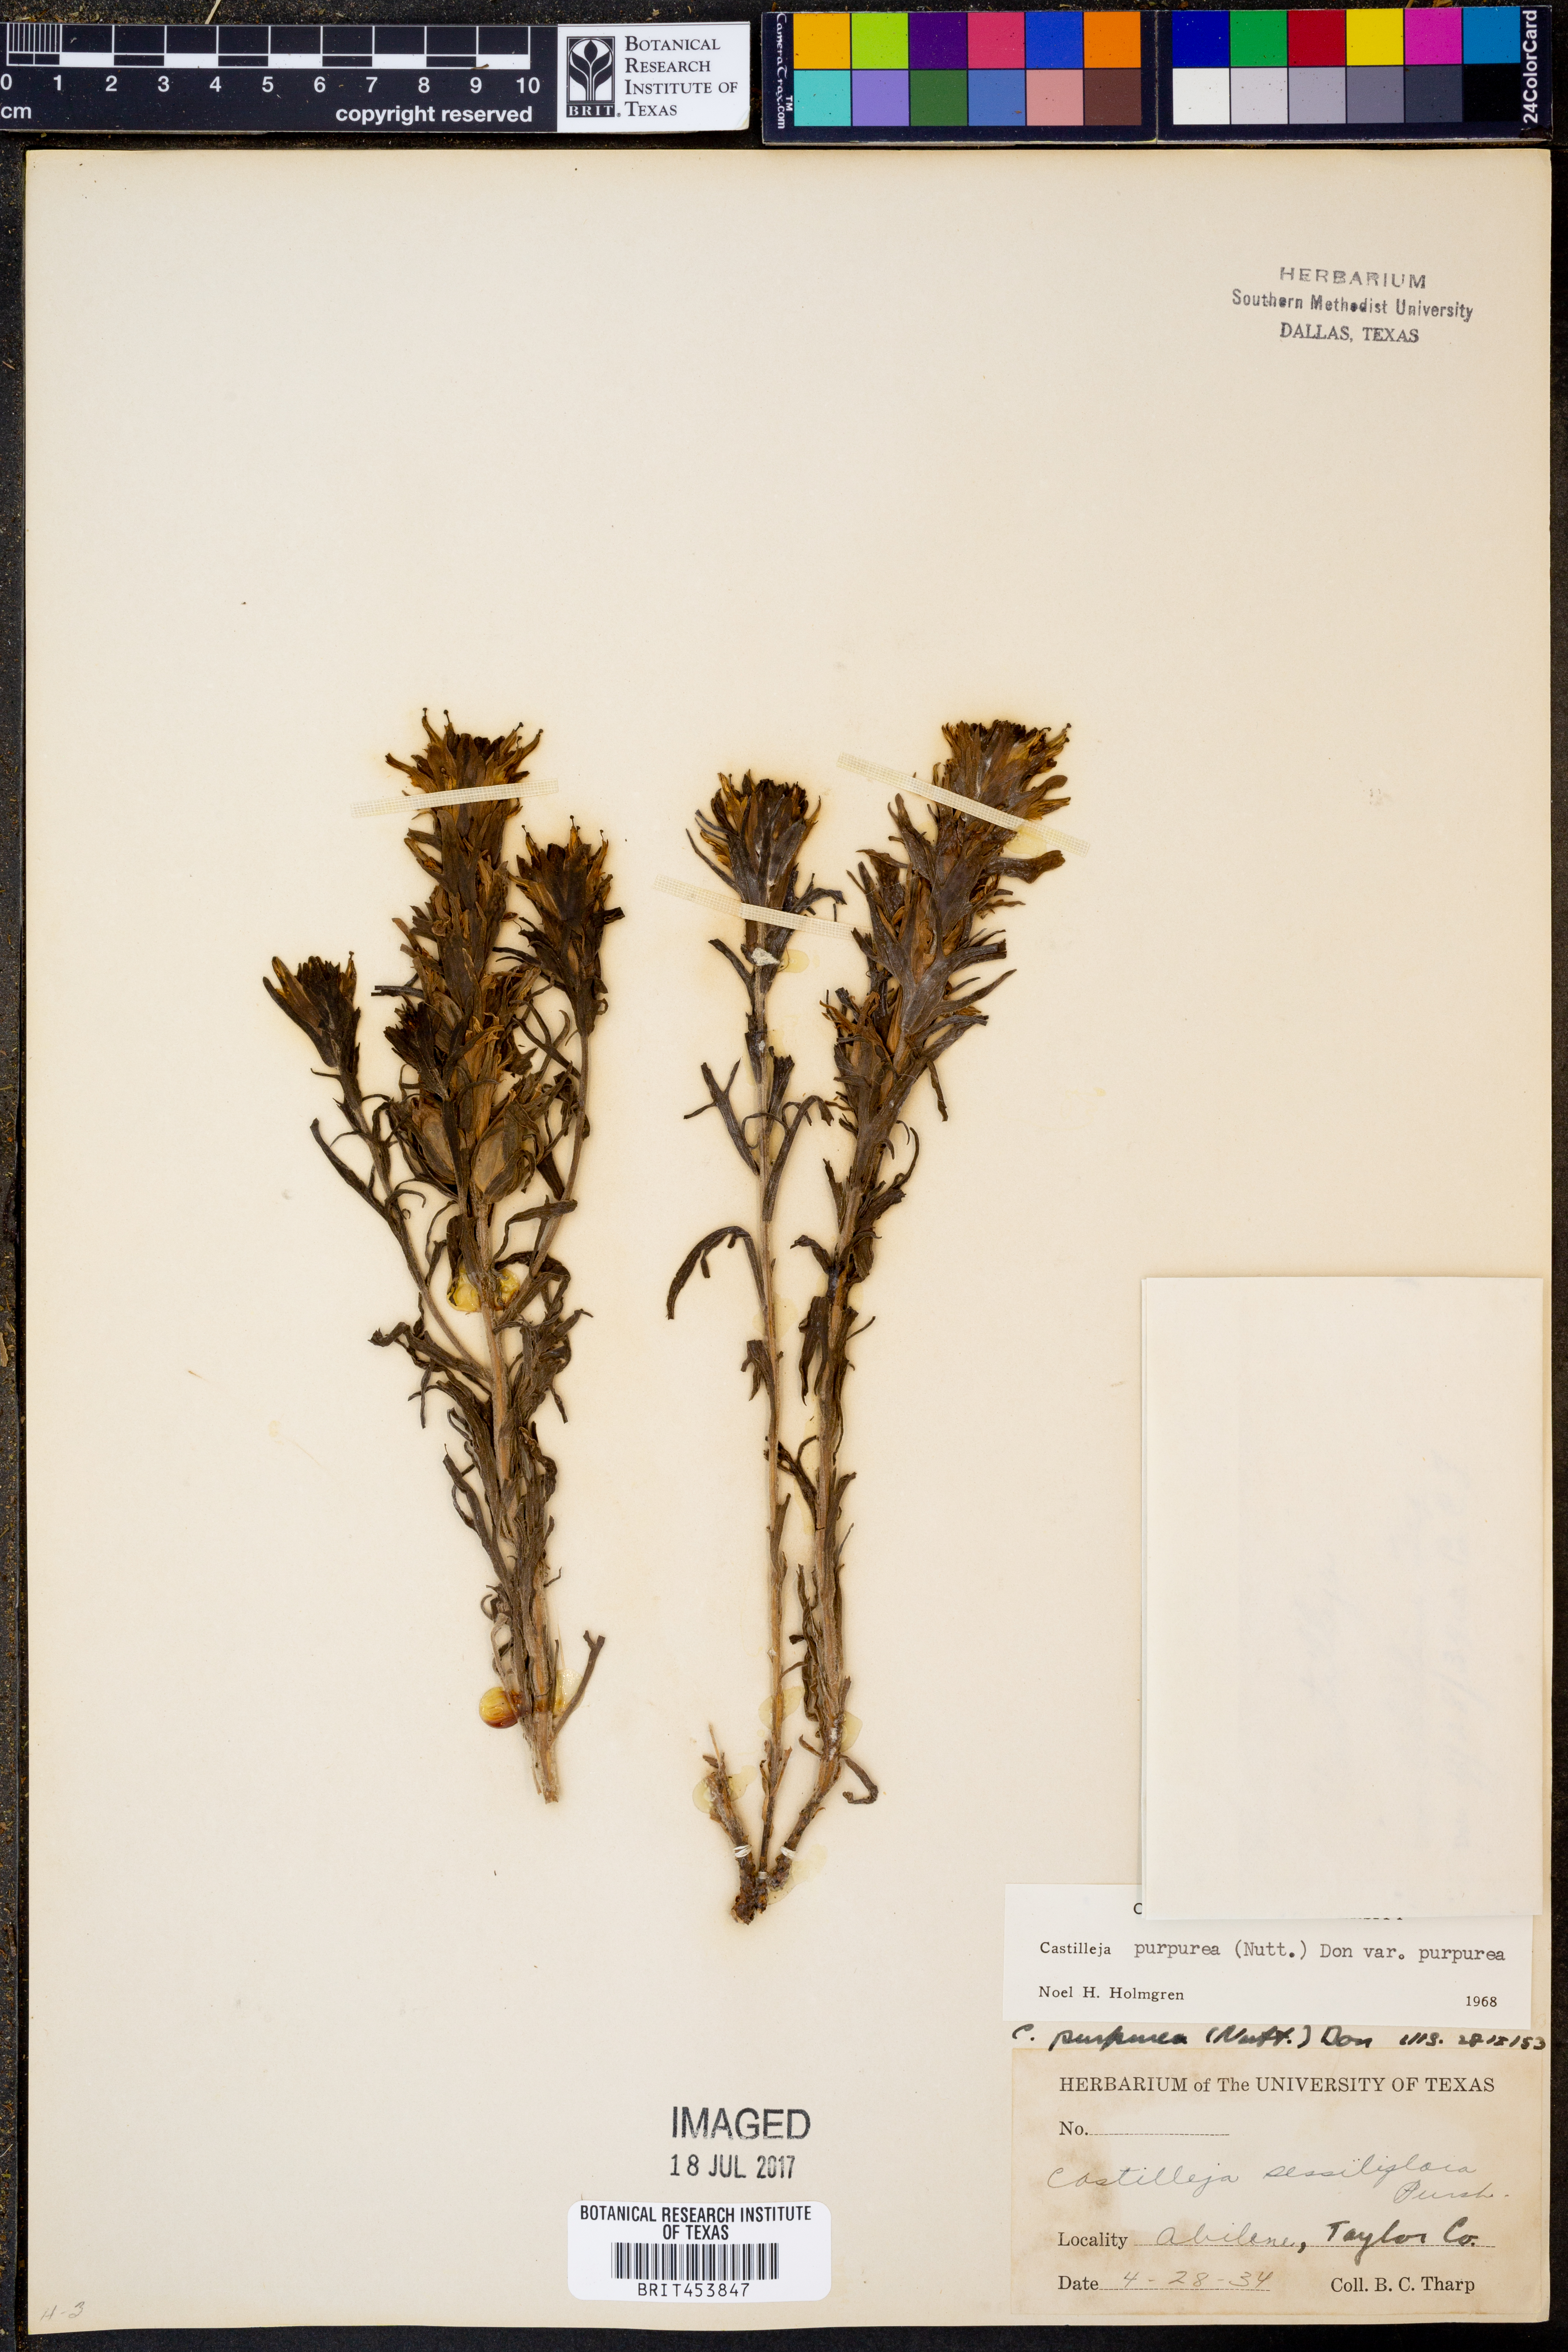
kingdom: Plantae
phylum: Tracheophyta
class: Magnoliopsida
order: Lamiales
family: Orobanchaceae
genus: Castilleja
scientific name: Castilleja purpurea
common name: Plains paintbrush
